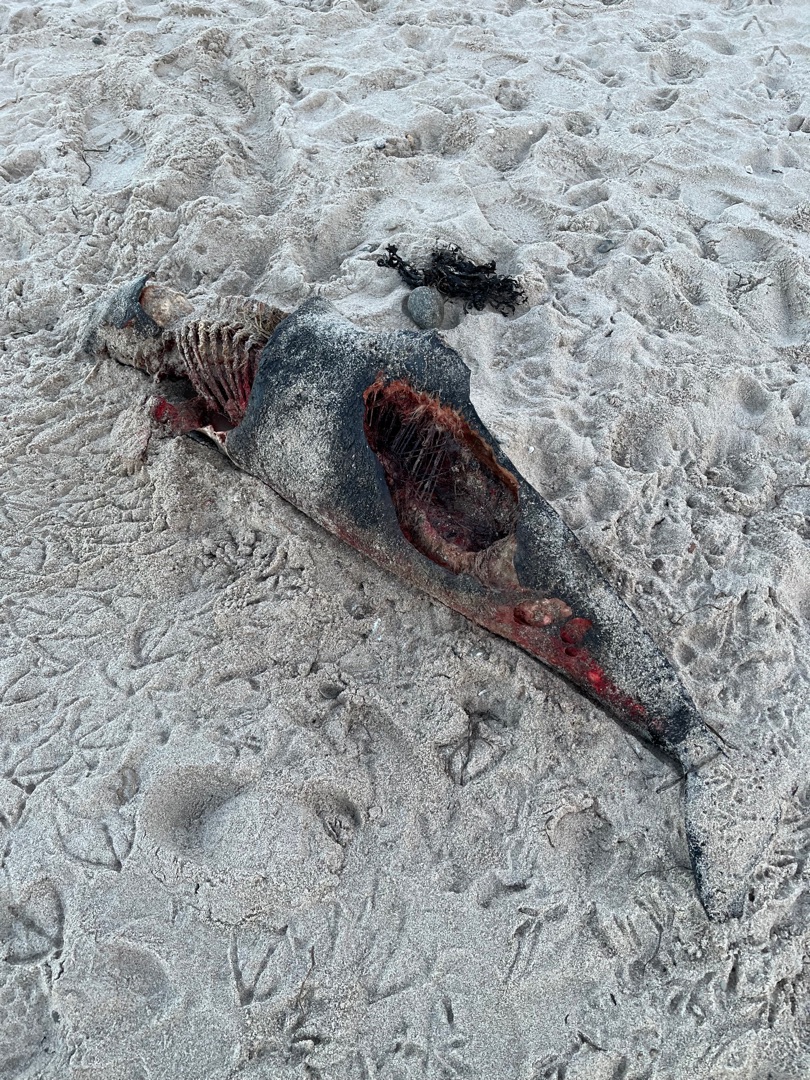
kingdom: Animalia
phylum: Chordata
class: Mammalia
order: Cetacea
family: Phocoenidae
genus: Phocoena
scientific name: Phocoena phocoena
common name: Marsvin
